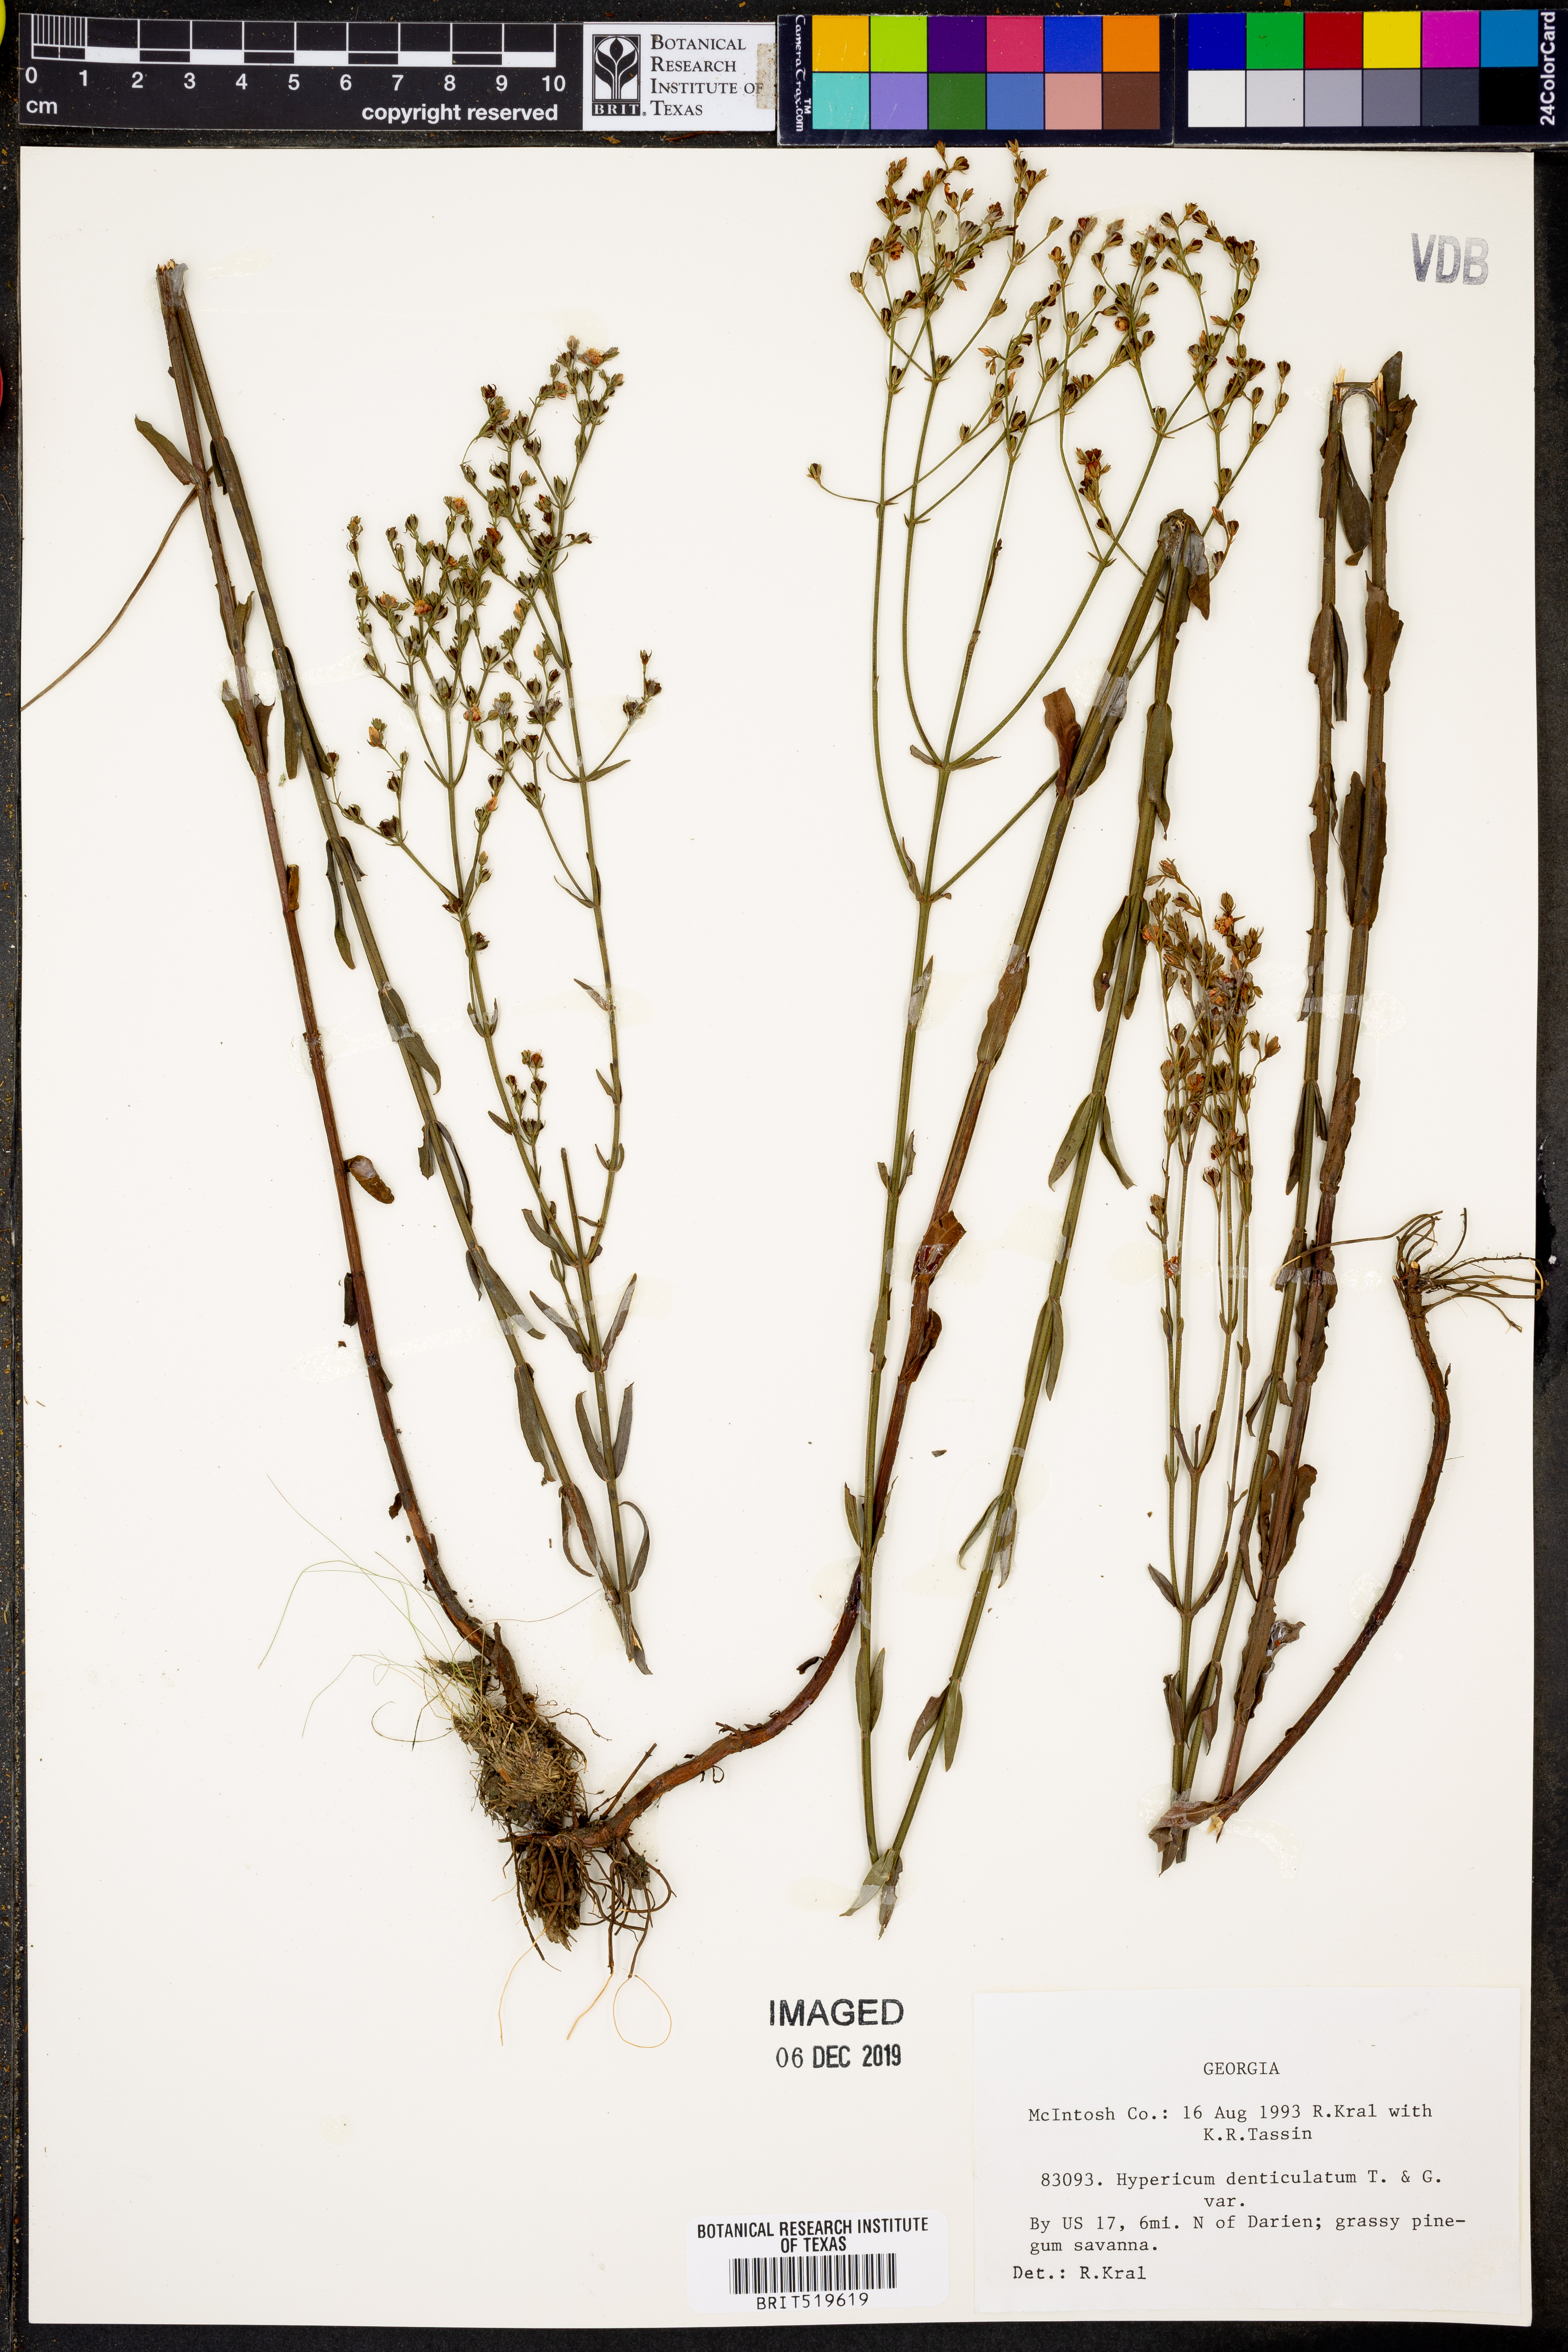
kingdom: Plantae
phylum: Tracheophyta
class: Magnoliopsida
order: Malpighiales
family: Hypericaceae
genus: Hypericum
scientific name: Hypericum denticulatum
